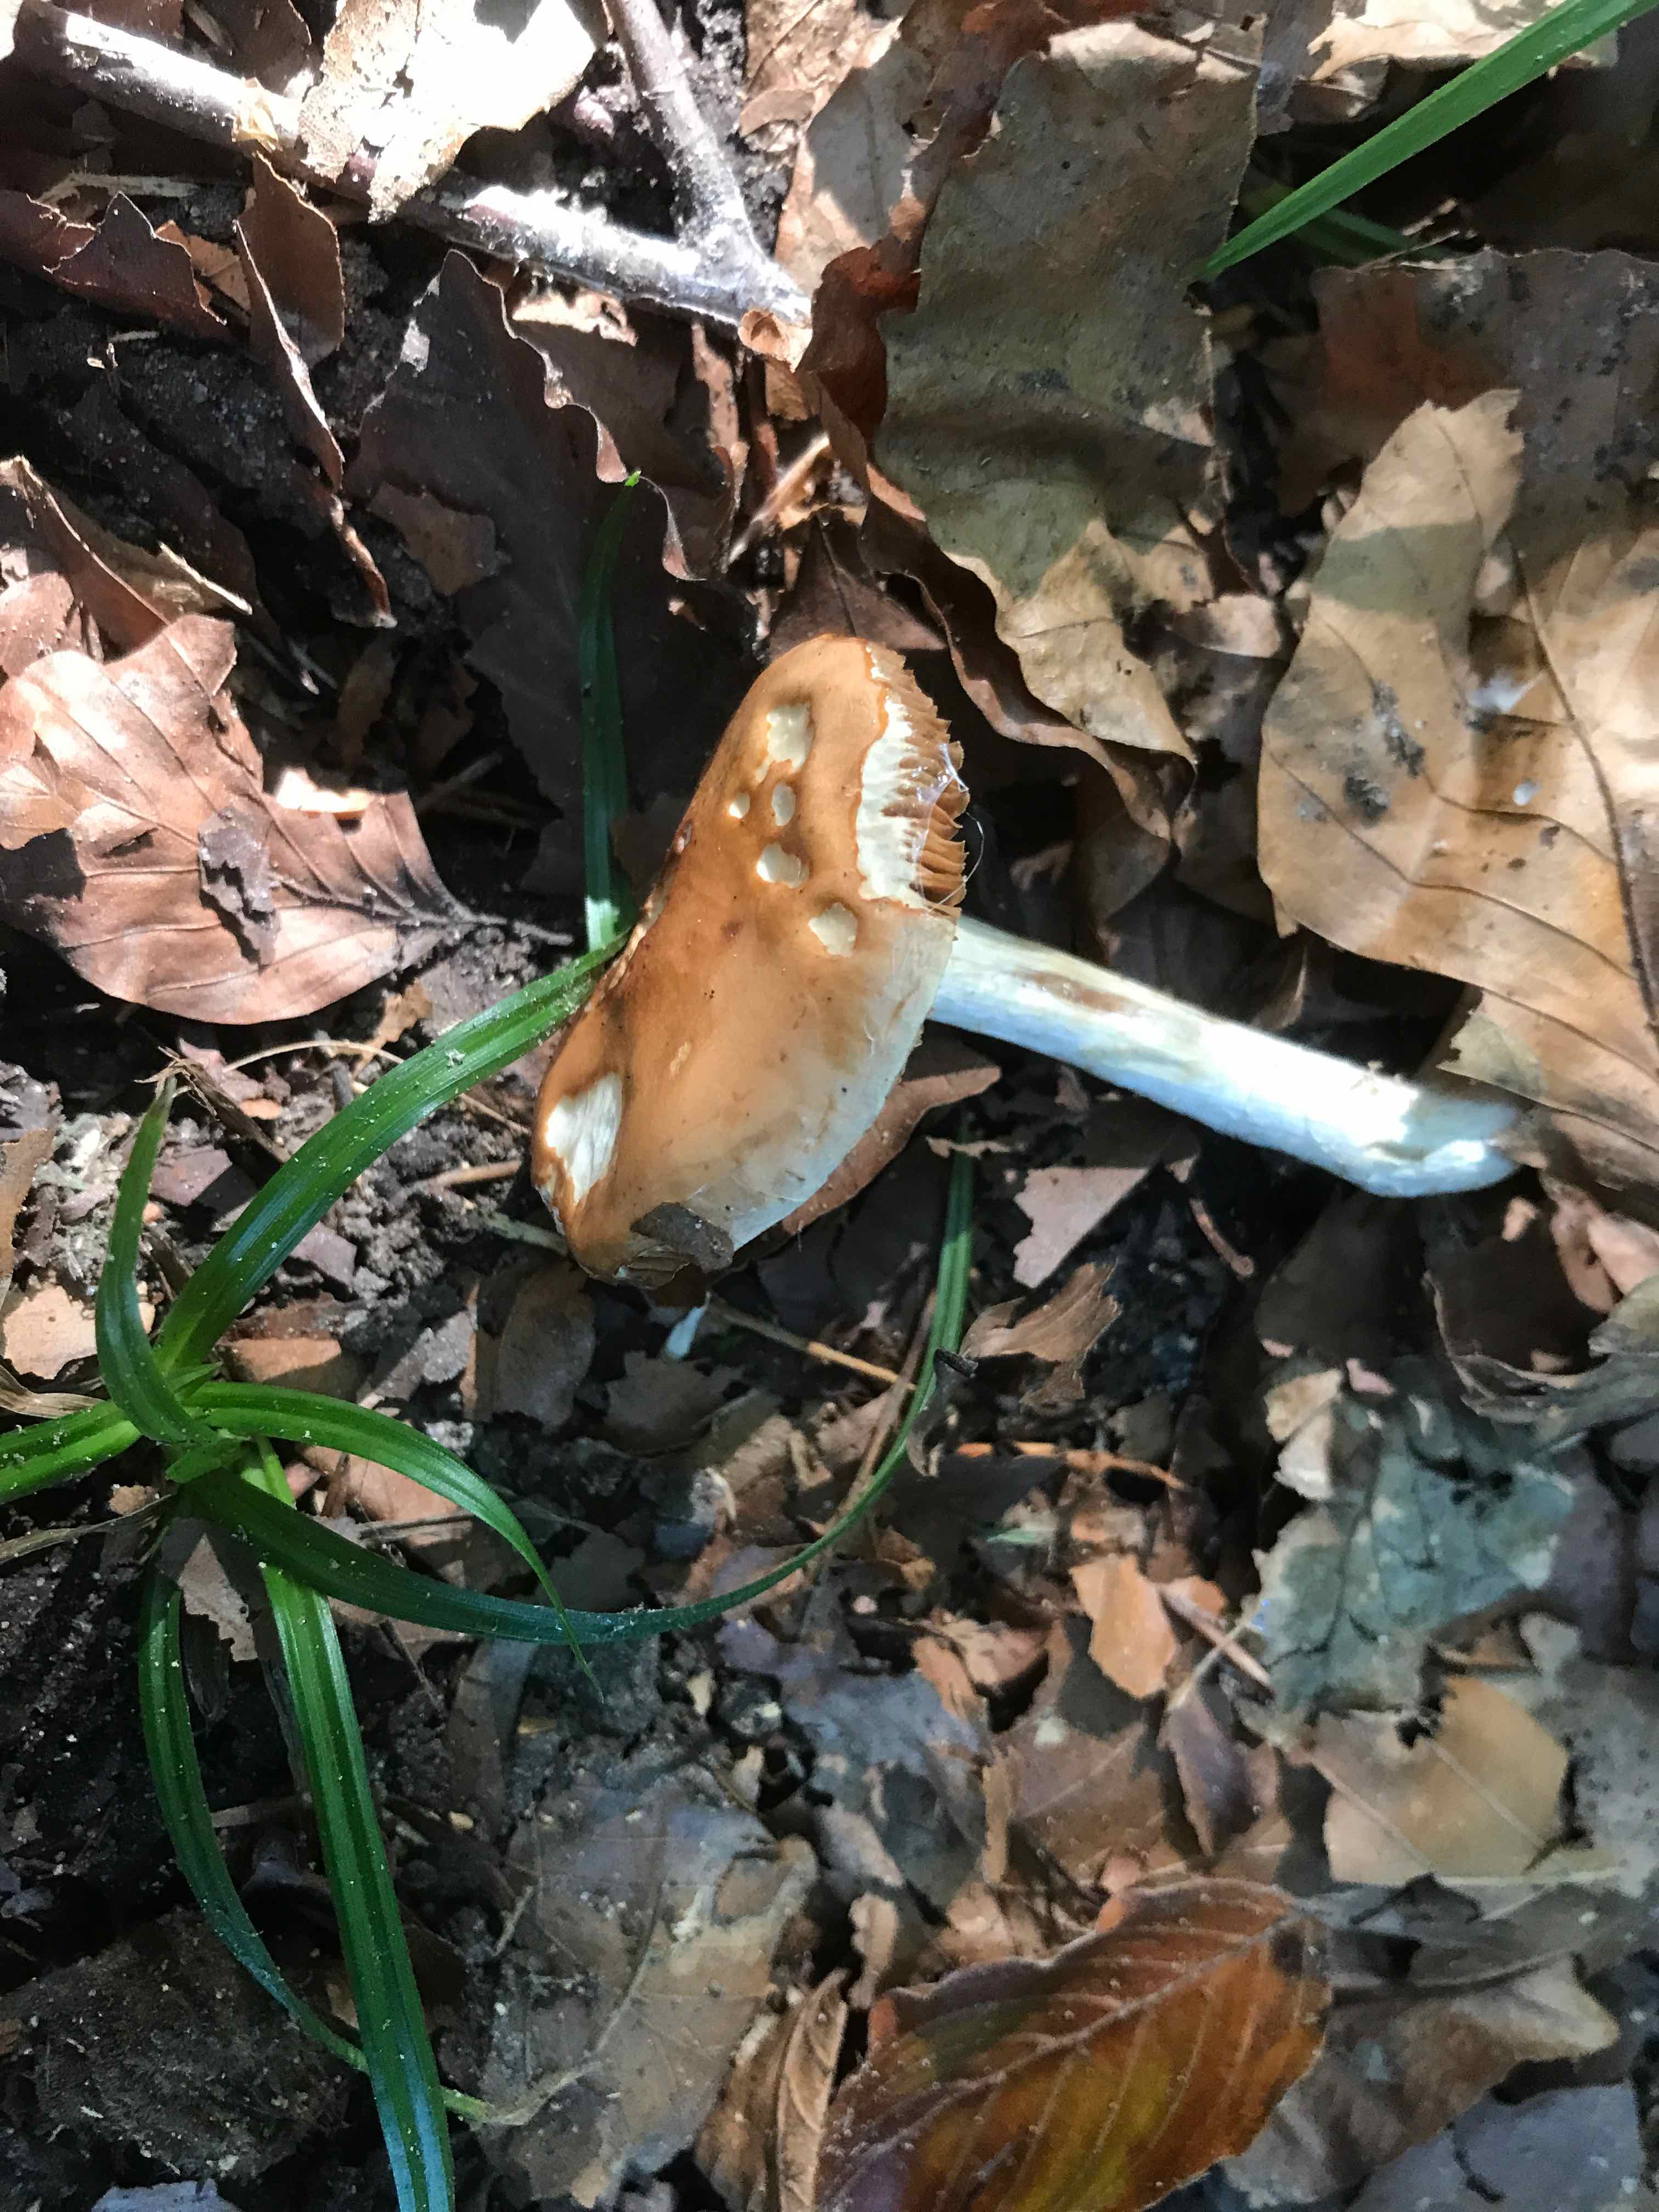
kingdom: Fungi
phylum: Basidiomycota
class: Agaricomycetes
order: Agaricales
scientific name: Agaricales
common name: champignonordenen
